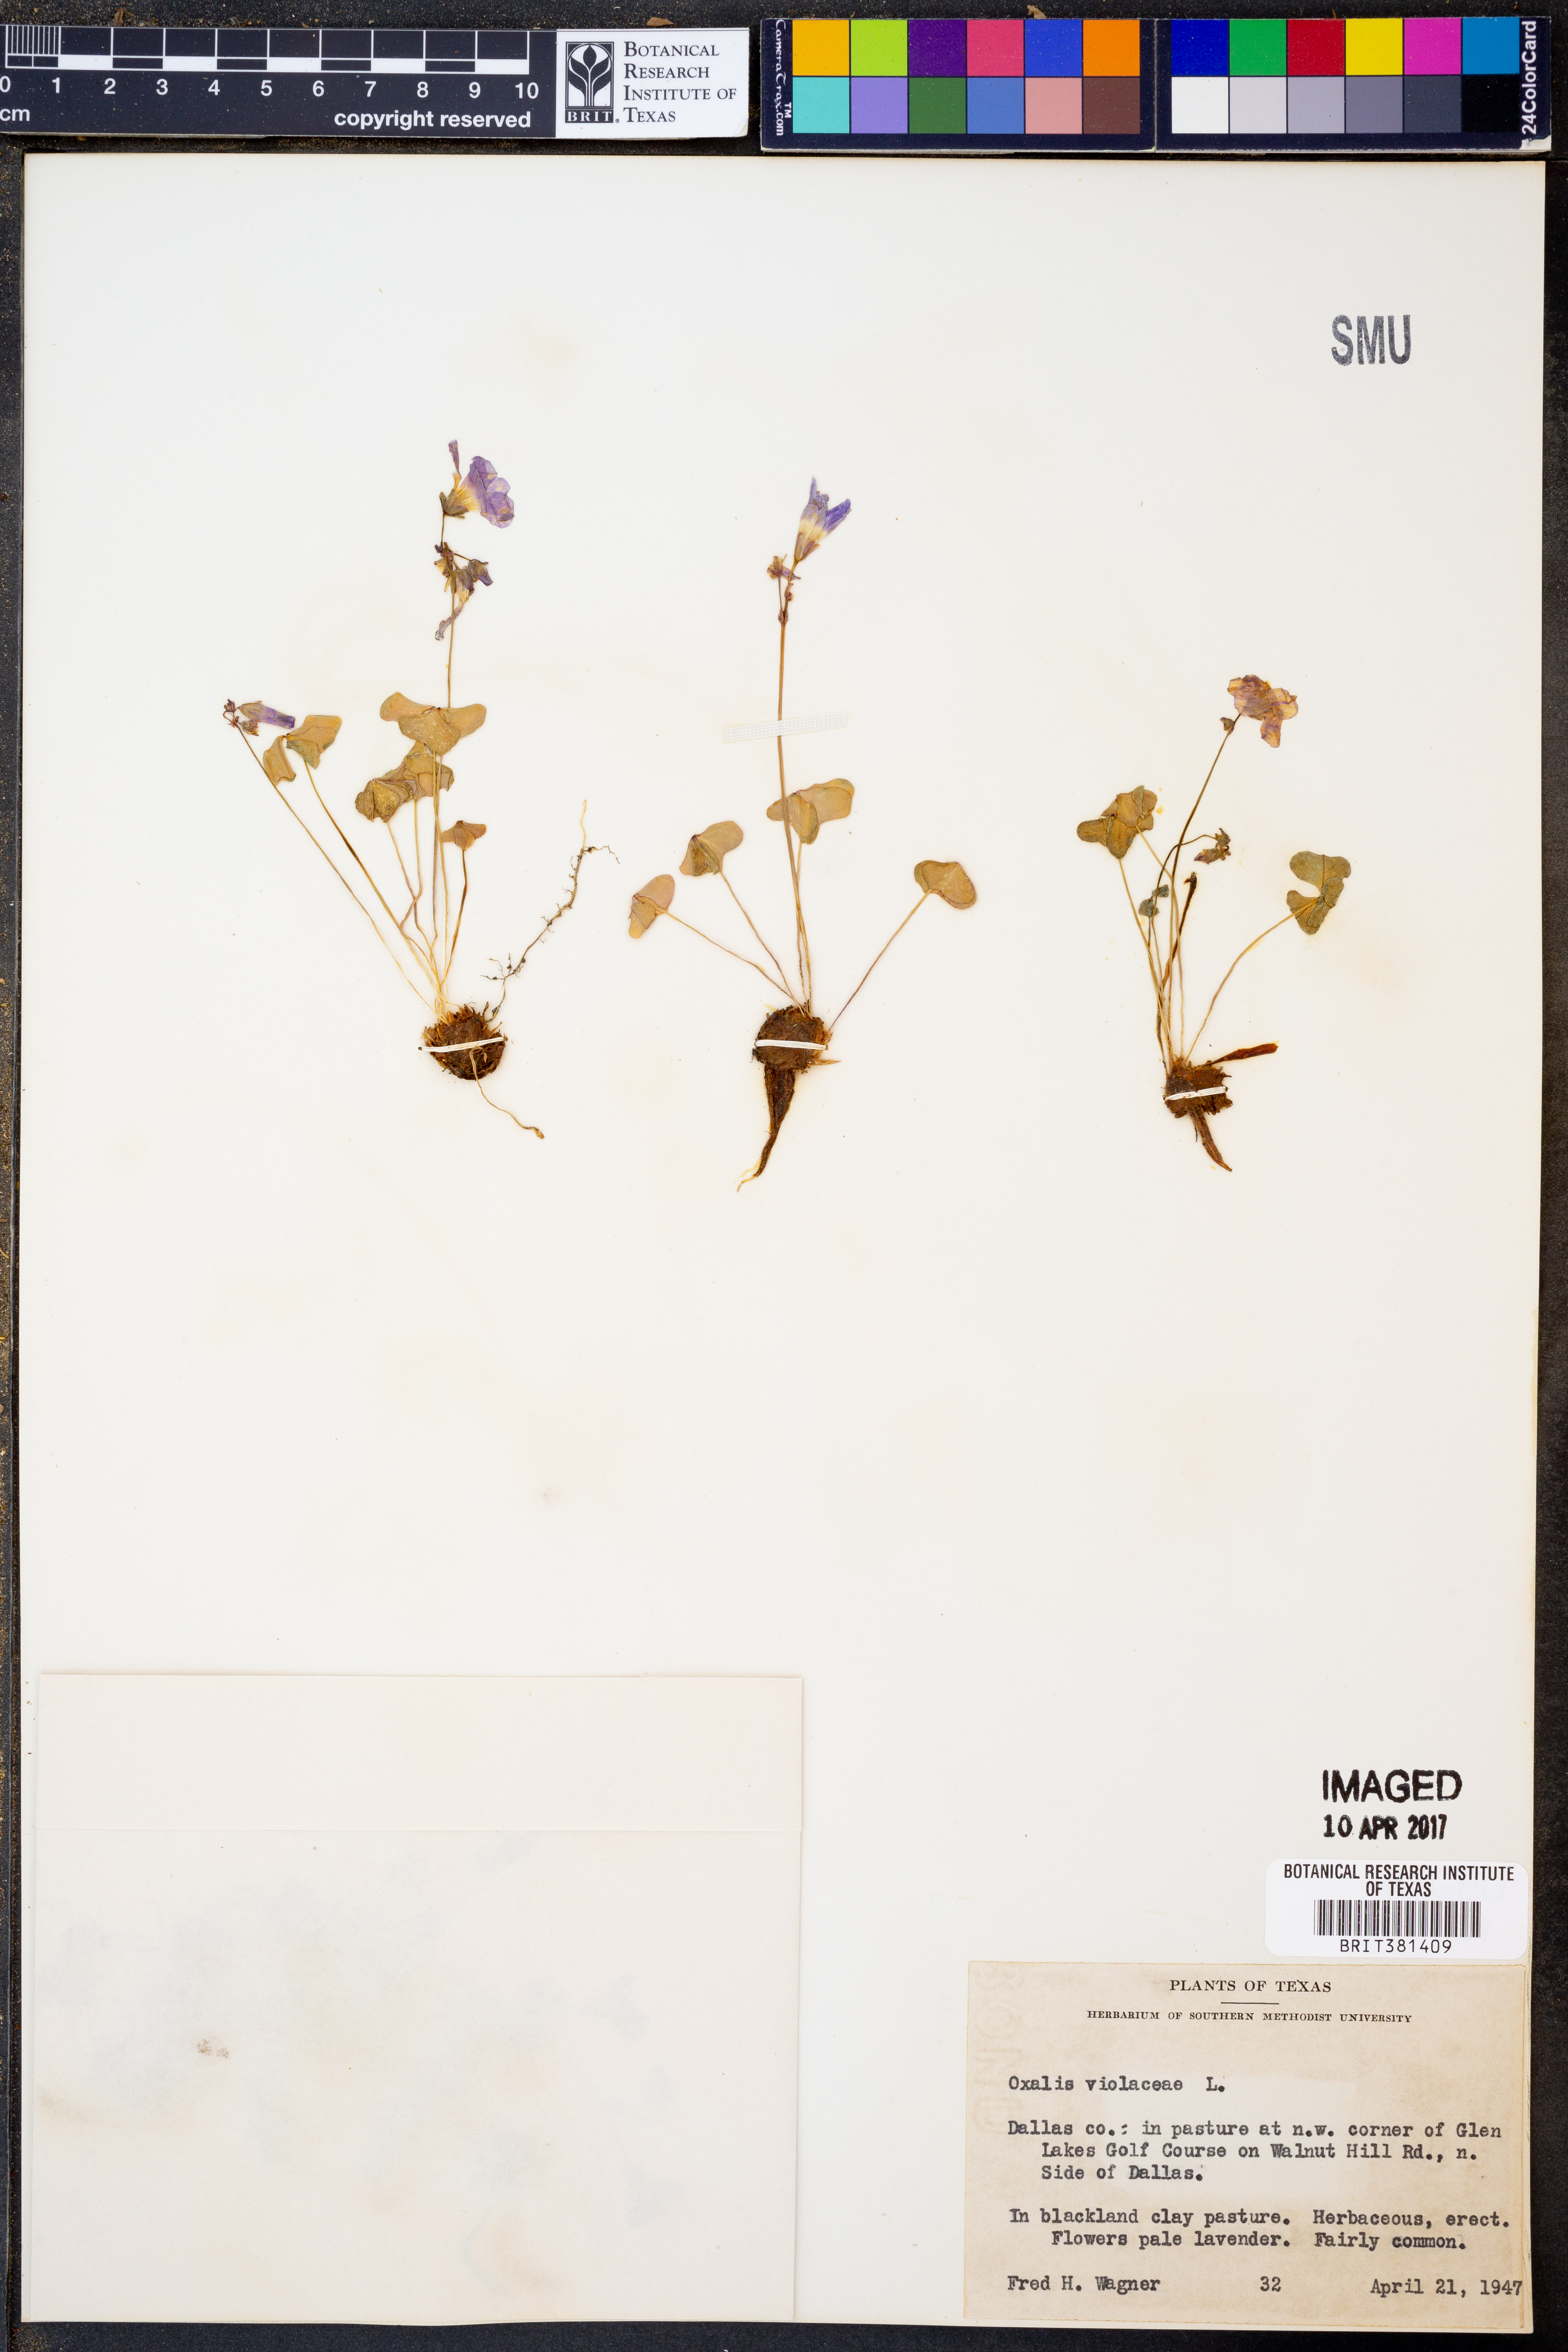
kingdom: Plantae
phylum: Tracheophyta
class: Magnoliopsida
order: Oxalidales
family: Oxalidaceae
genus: Oxalis
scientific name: Oxalis violacea
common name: Violet wood-sorrel
